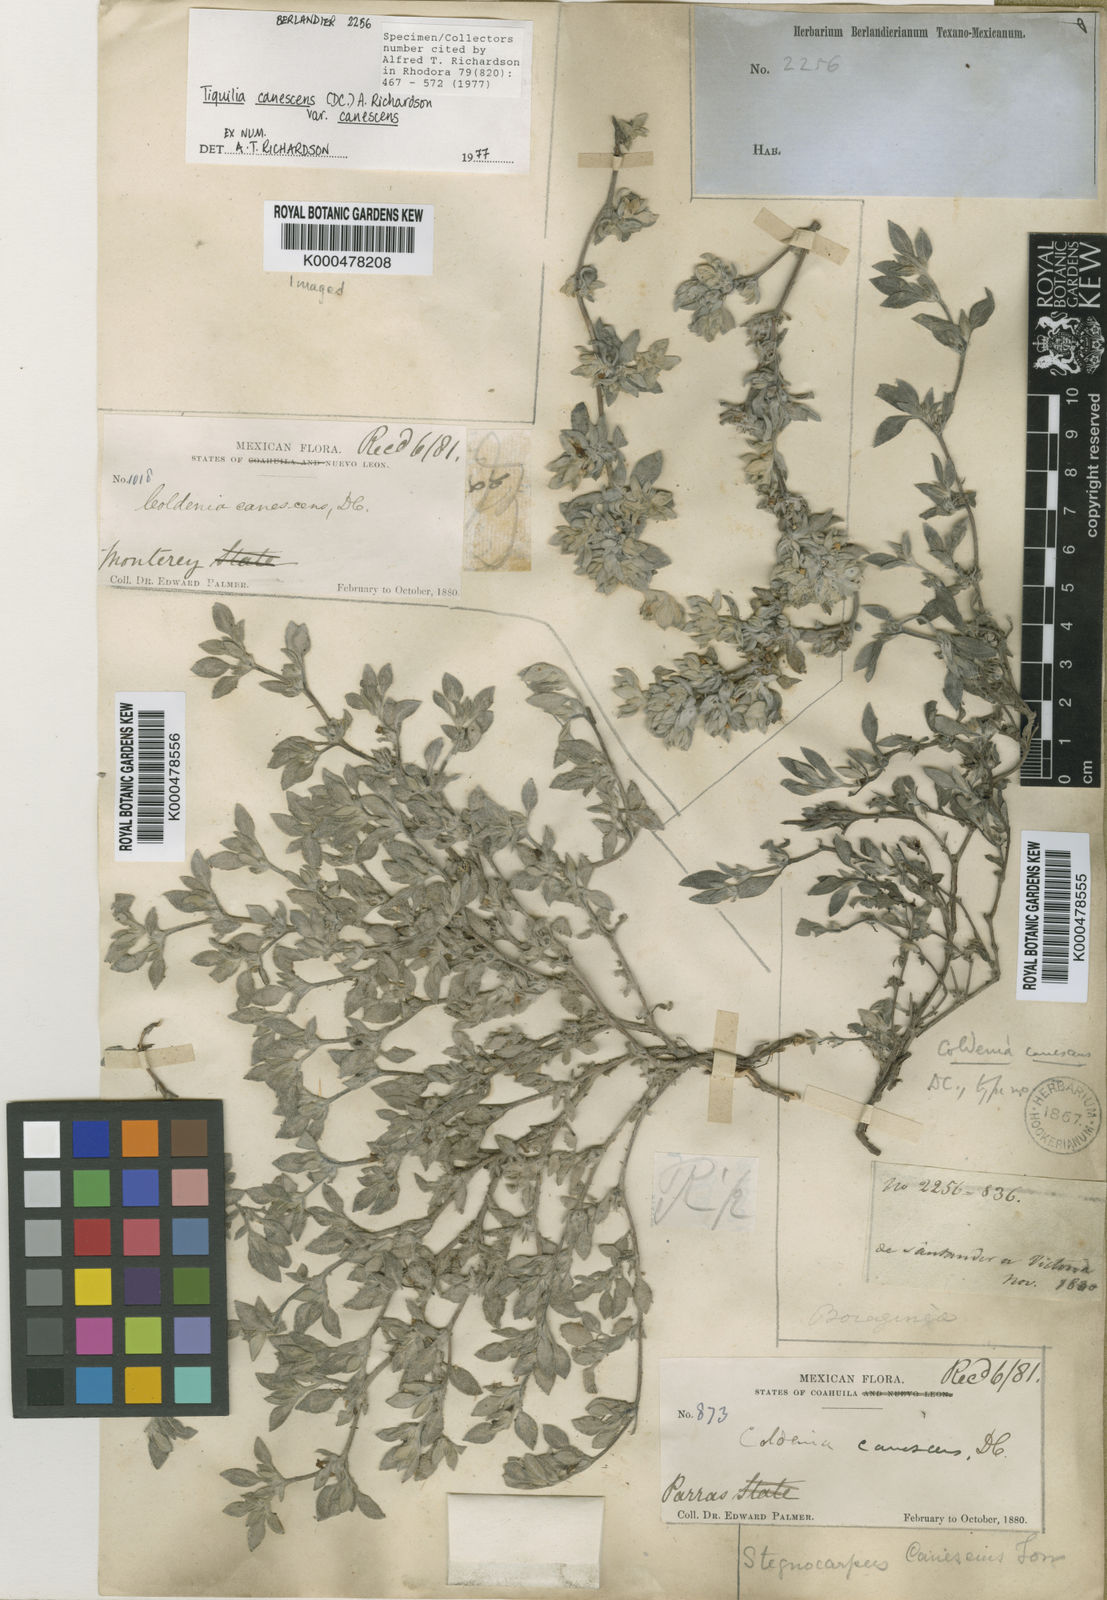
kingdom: Plantae
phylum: Tracheophyta
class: Magnoliopsida
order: Boraginales
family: Ehretiaceae
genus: Tiquilia
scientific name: Tiquilia canescens
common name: Hairy tiquilia
